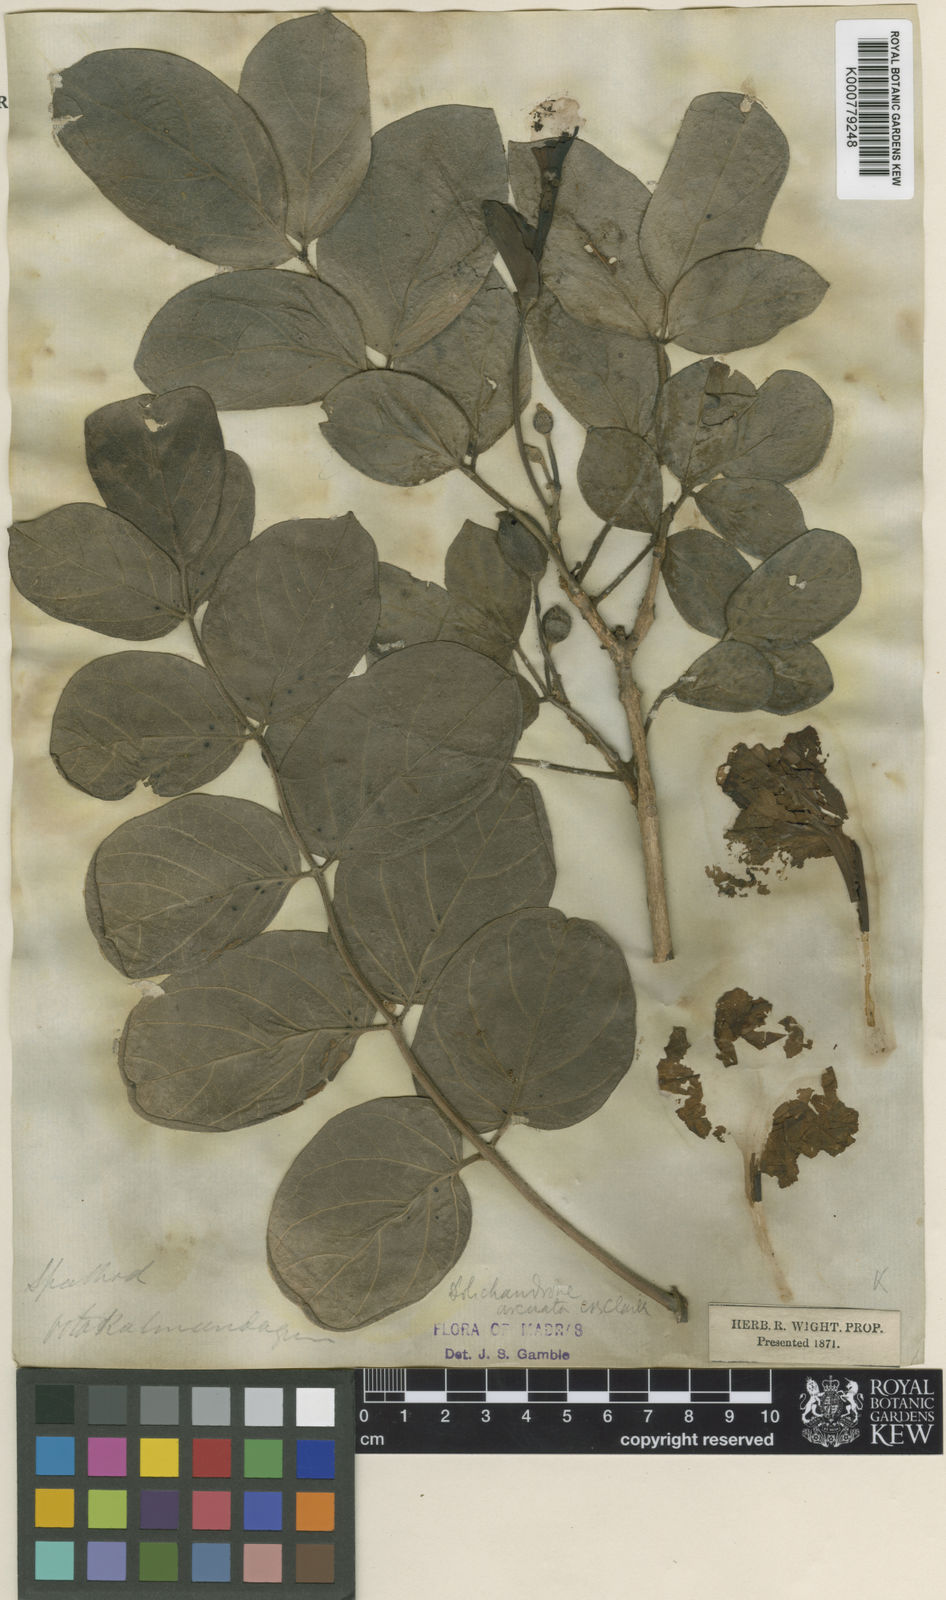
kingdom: Plantae
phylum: Tracheophyta
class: Magnoliopsida
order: Lamiales
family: Bignoniaceae
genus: Dolichandrone
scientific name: Dolichandrone arcuata
